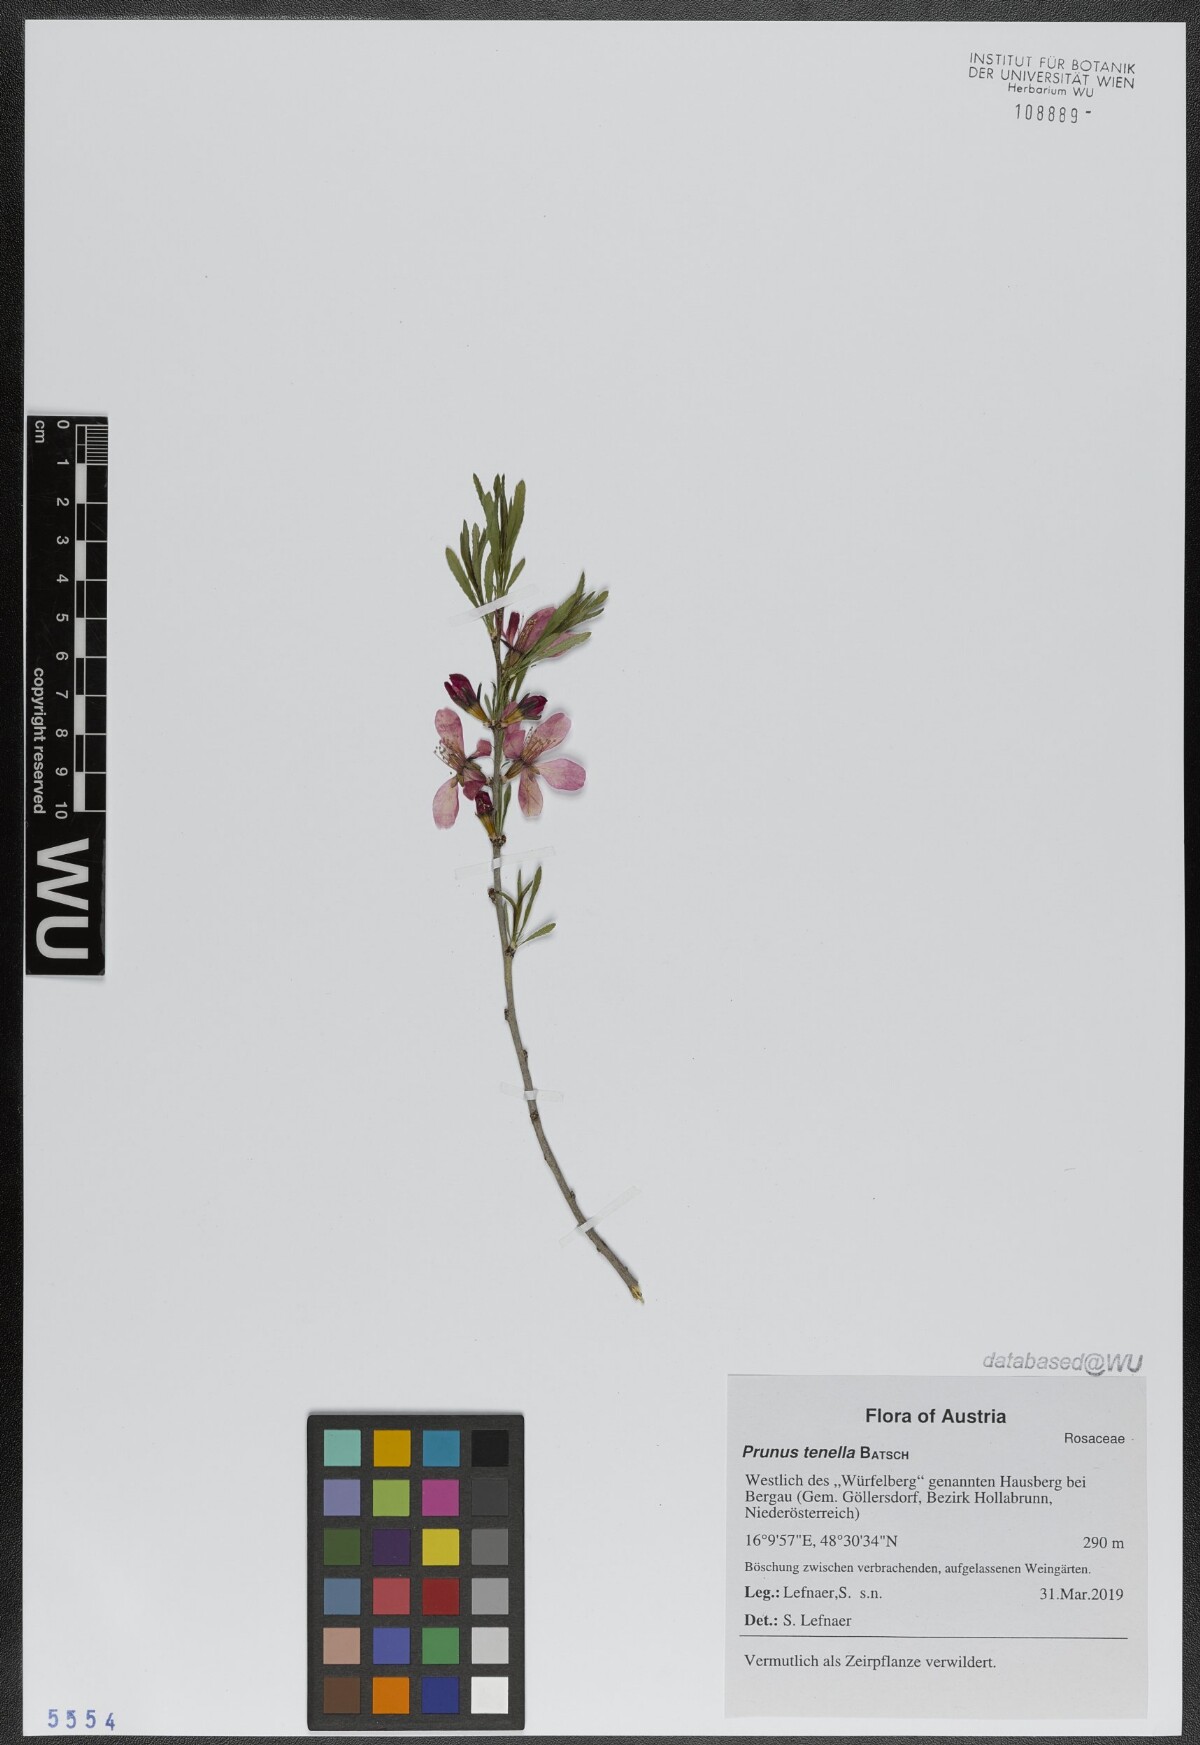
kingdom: Plantae
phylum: Tracheophyta
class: Magnoliopsida
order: Rosales
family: Rosaceae
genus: Prunus
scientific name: Prunus tenella
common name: Dwarf russian almond
